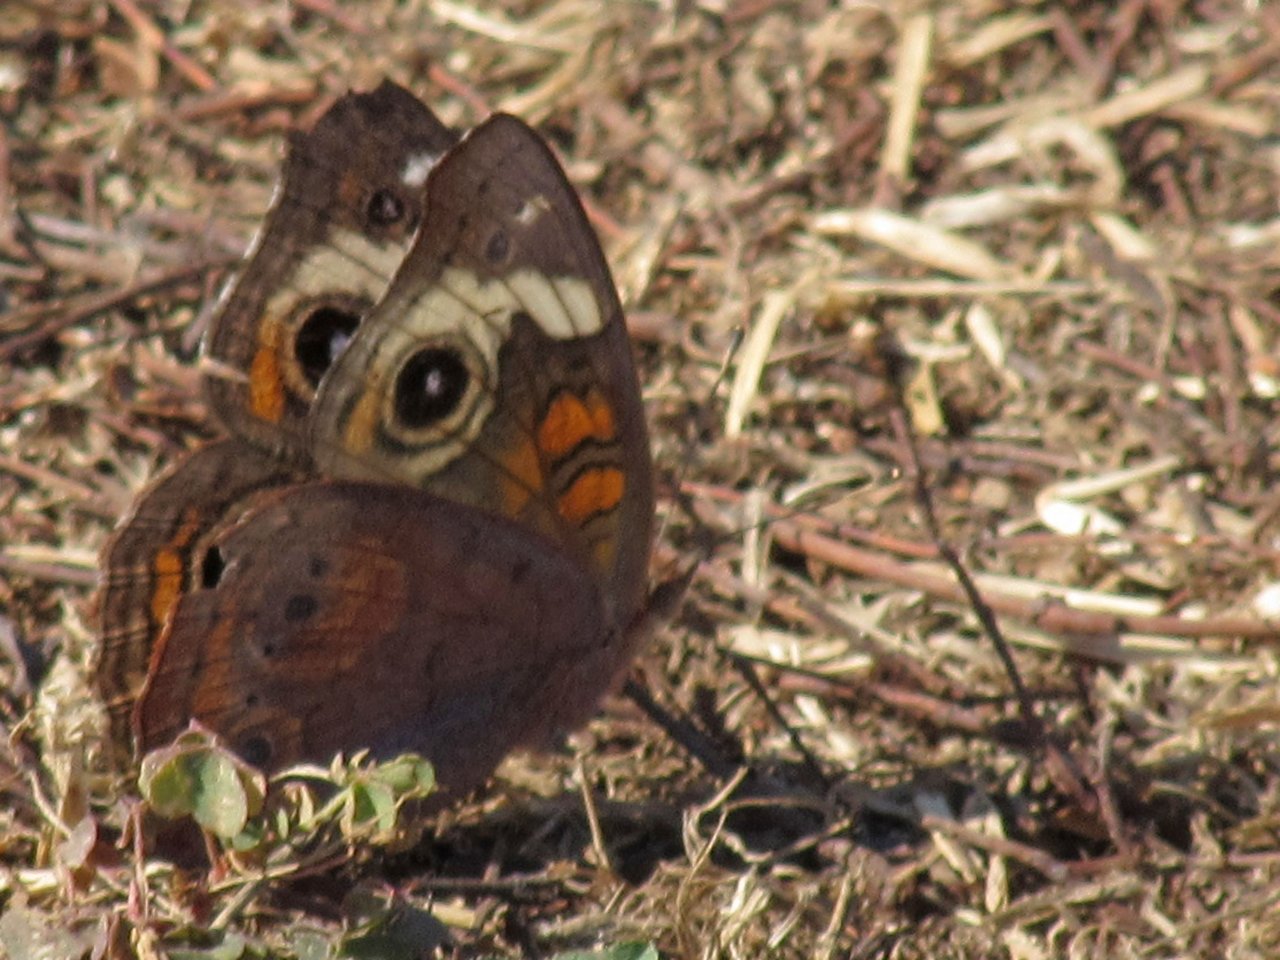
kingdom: Animalia
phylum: Arthropoda
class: Insecta
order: Lepidoptera
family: Nymphalidae
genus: Junonia
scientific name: Junonia coenia
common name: Common Buckeye
